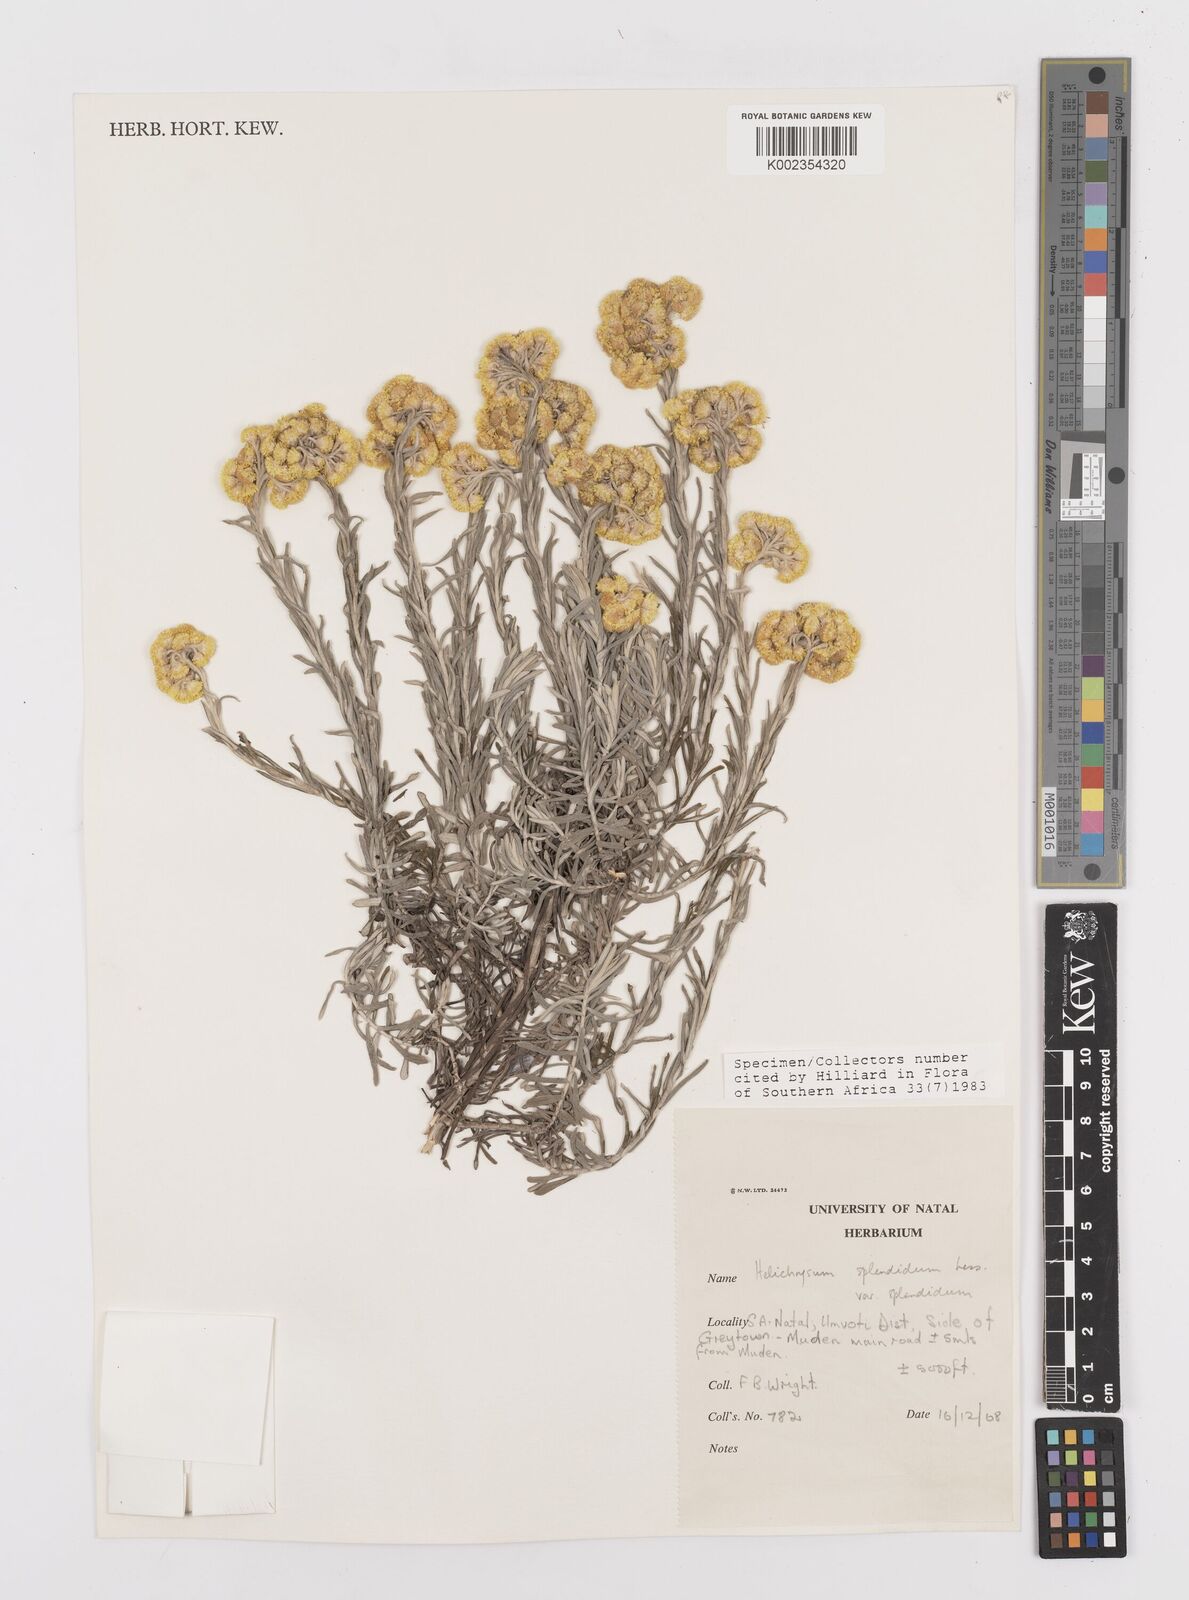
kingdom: Plantae
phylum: Tracheophyta
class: Magnoliopsida
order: Asterales
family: Asteraceae
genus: Helichrysum
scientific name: Helichrysum splendidum
